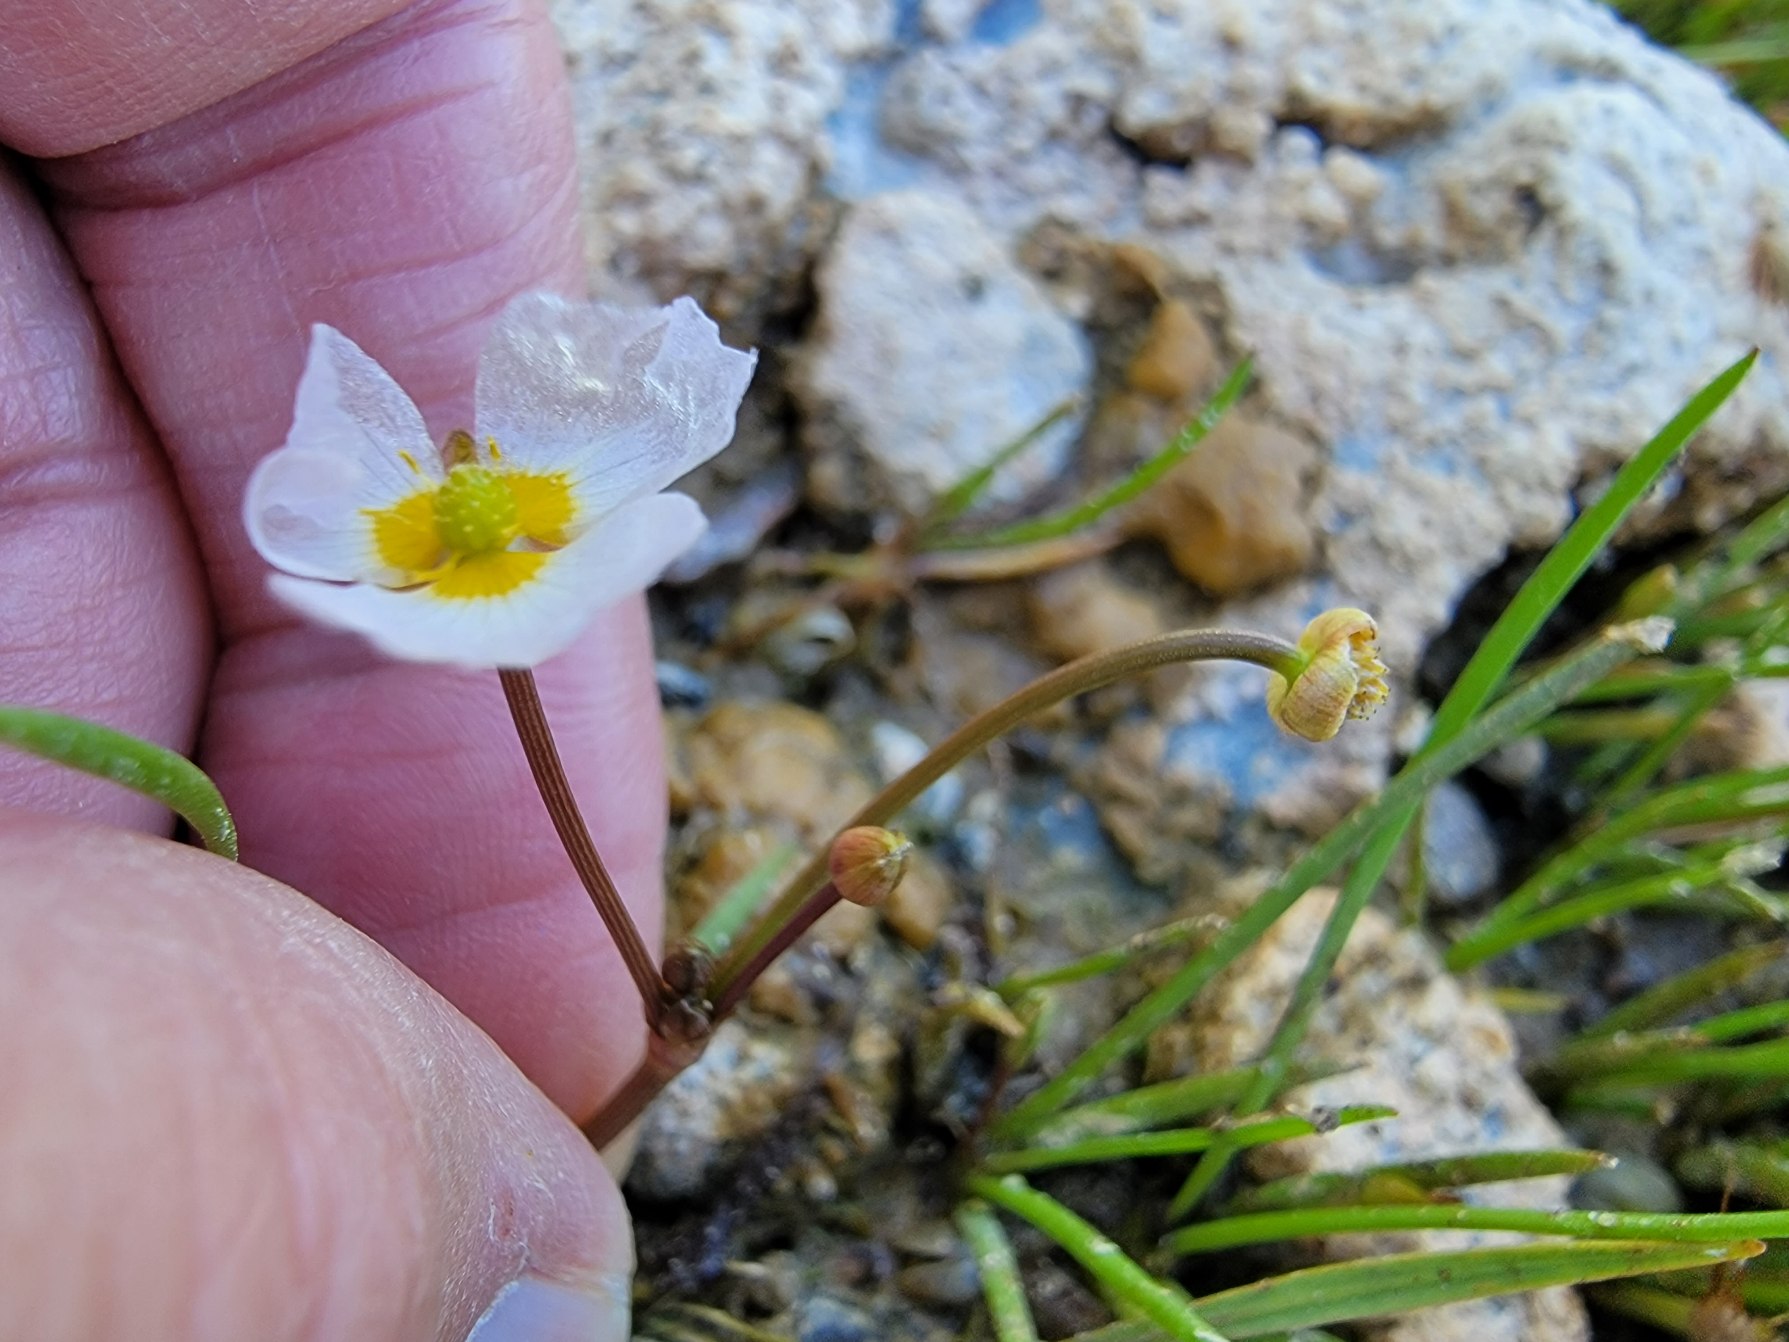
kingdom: Plantae
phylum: Tracheophyta
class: Liliopsida
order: Alismatales
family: Alismataceae
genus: Baldellia
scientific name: Baldellia ranunculoides
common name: Søpryd
